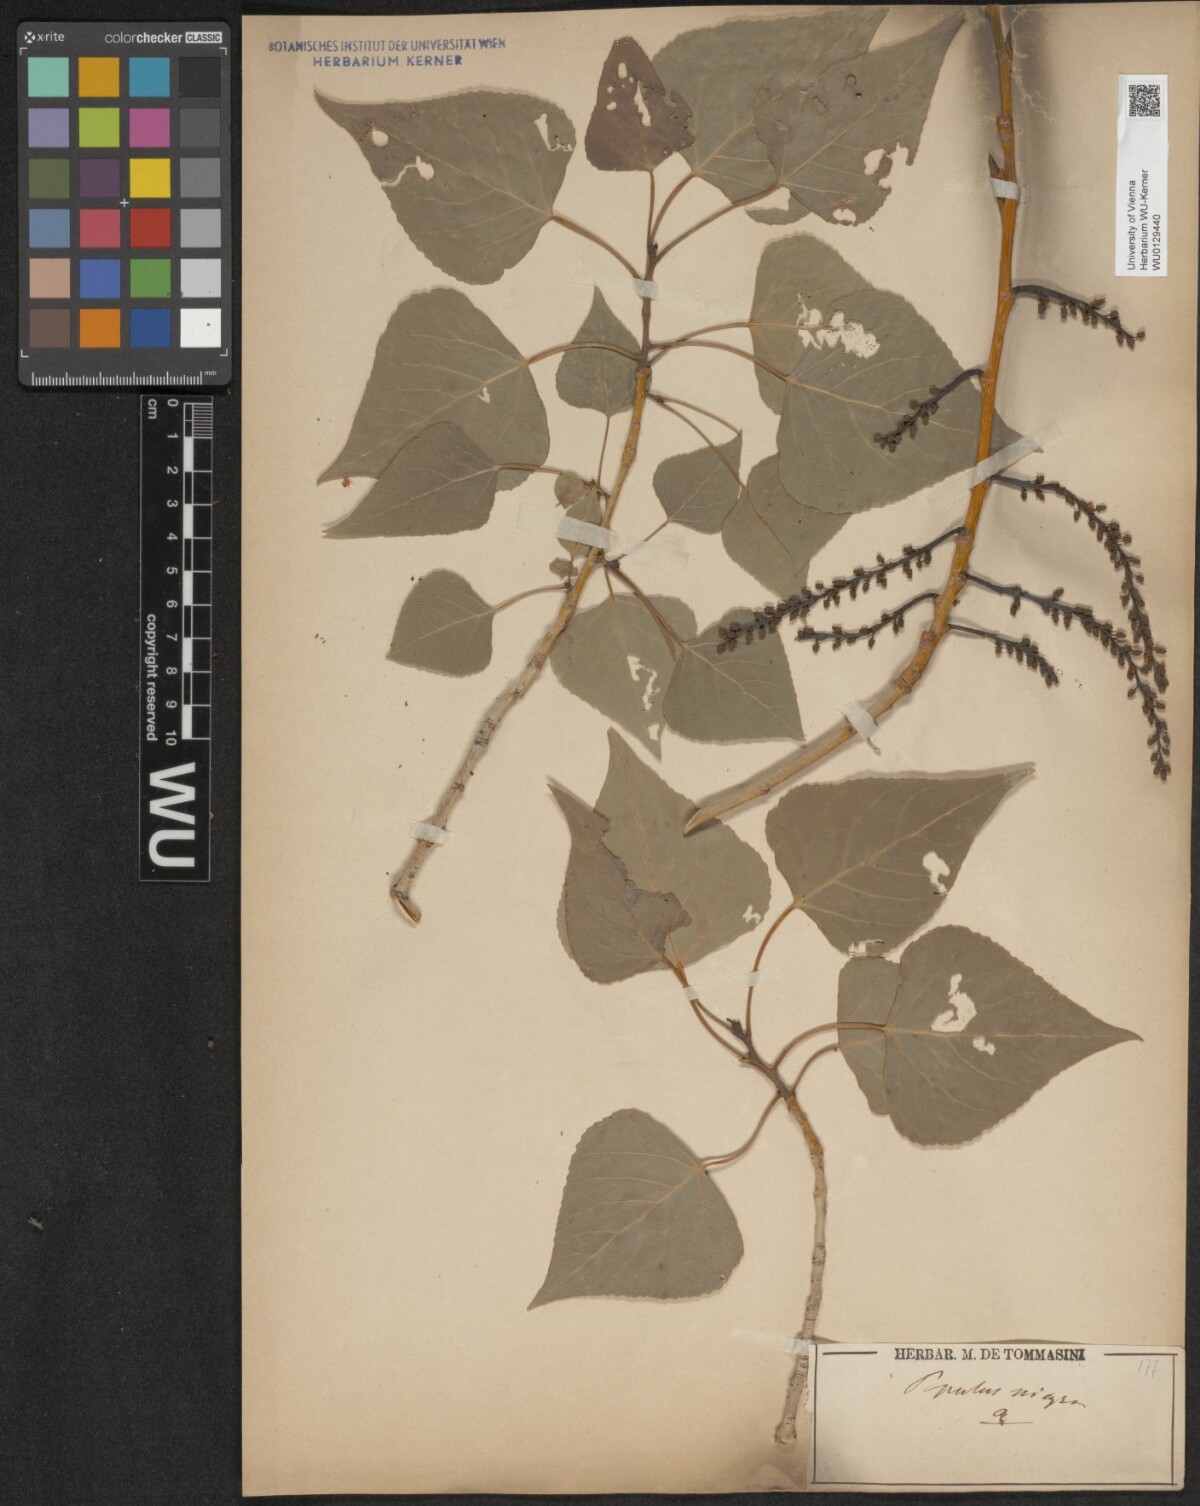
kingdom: Plantae
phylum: Tracheophyta
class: Magnoliopsida
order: Malpighiales
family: Salicaceae
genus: Populus
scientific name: Populus nigra
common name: Black poplar
